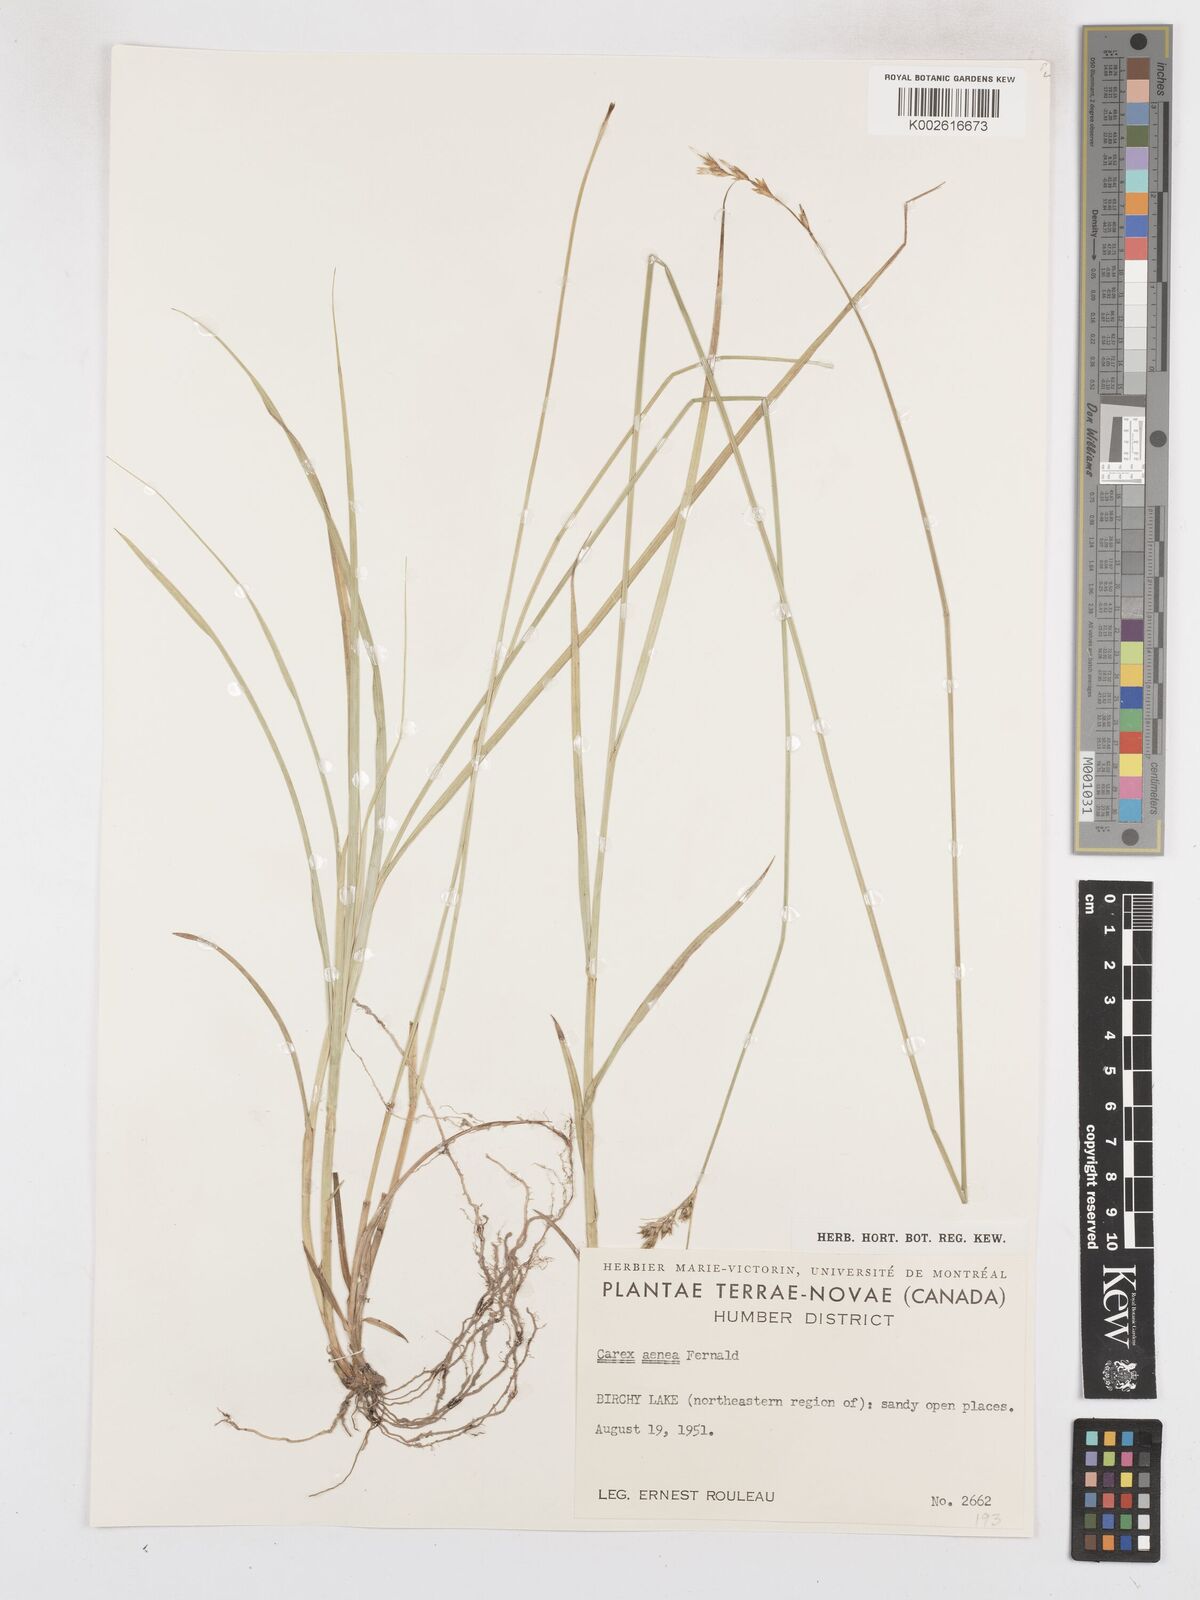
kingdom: Plantae
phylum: Tracheophyta
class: Liliopsida
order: Poales
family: Cyperaceae
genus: Carex
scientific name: Carex foenea
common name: Bronze sedge
